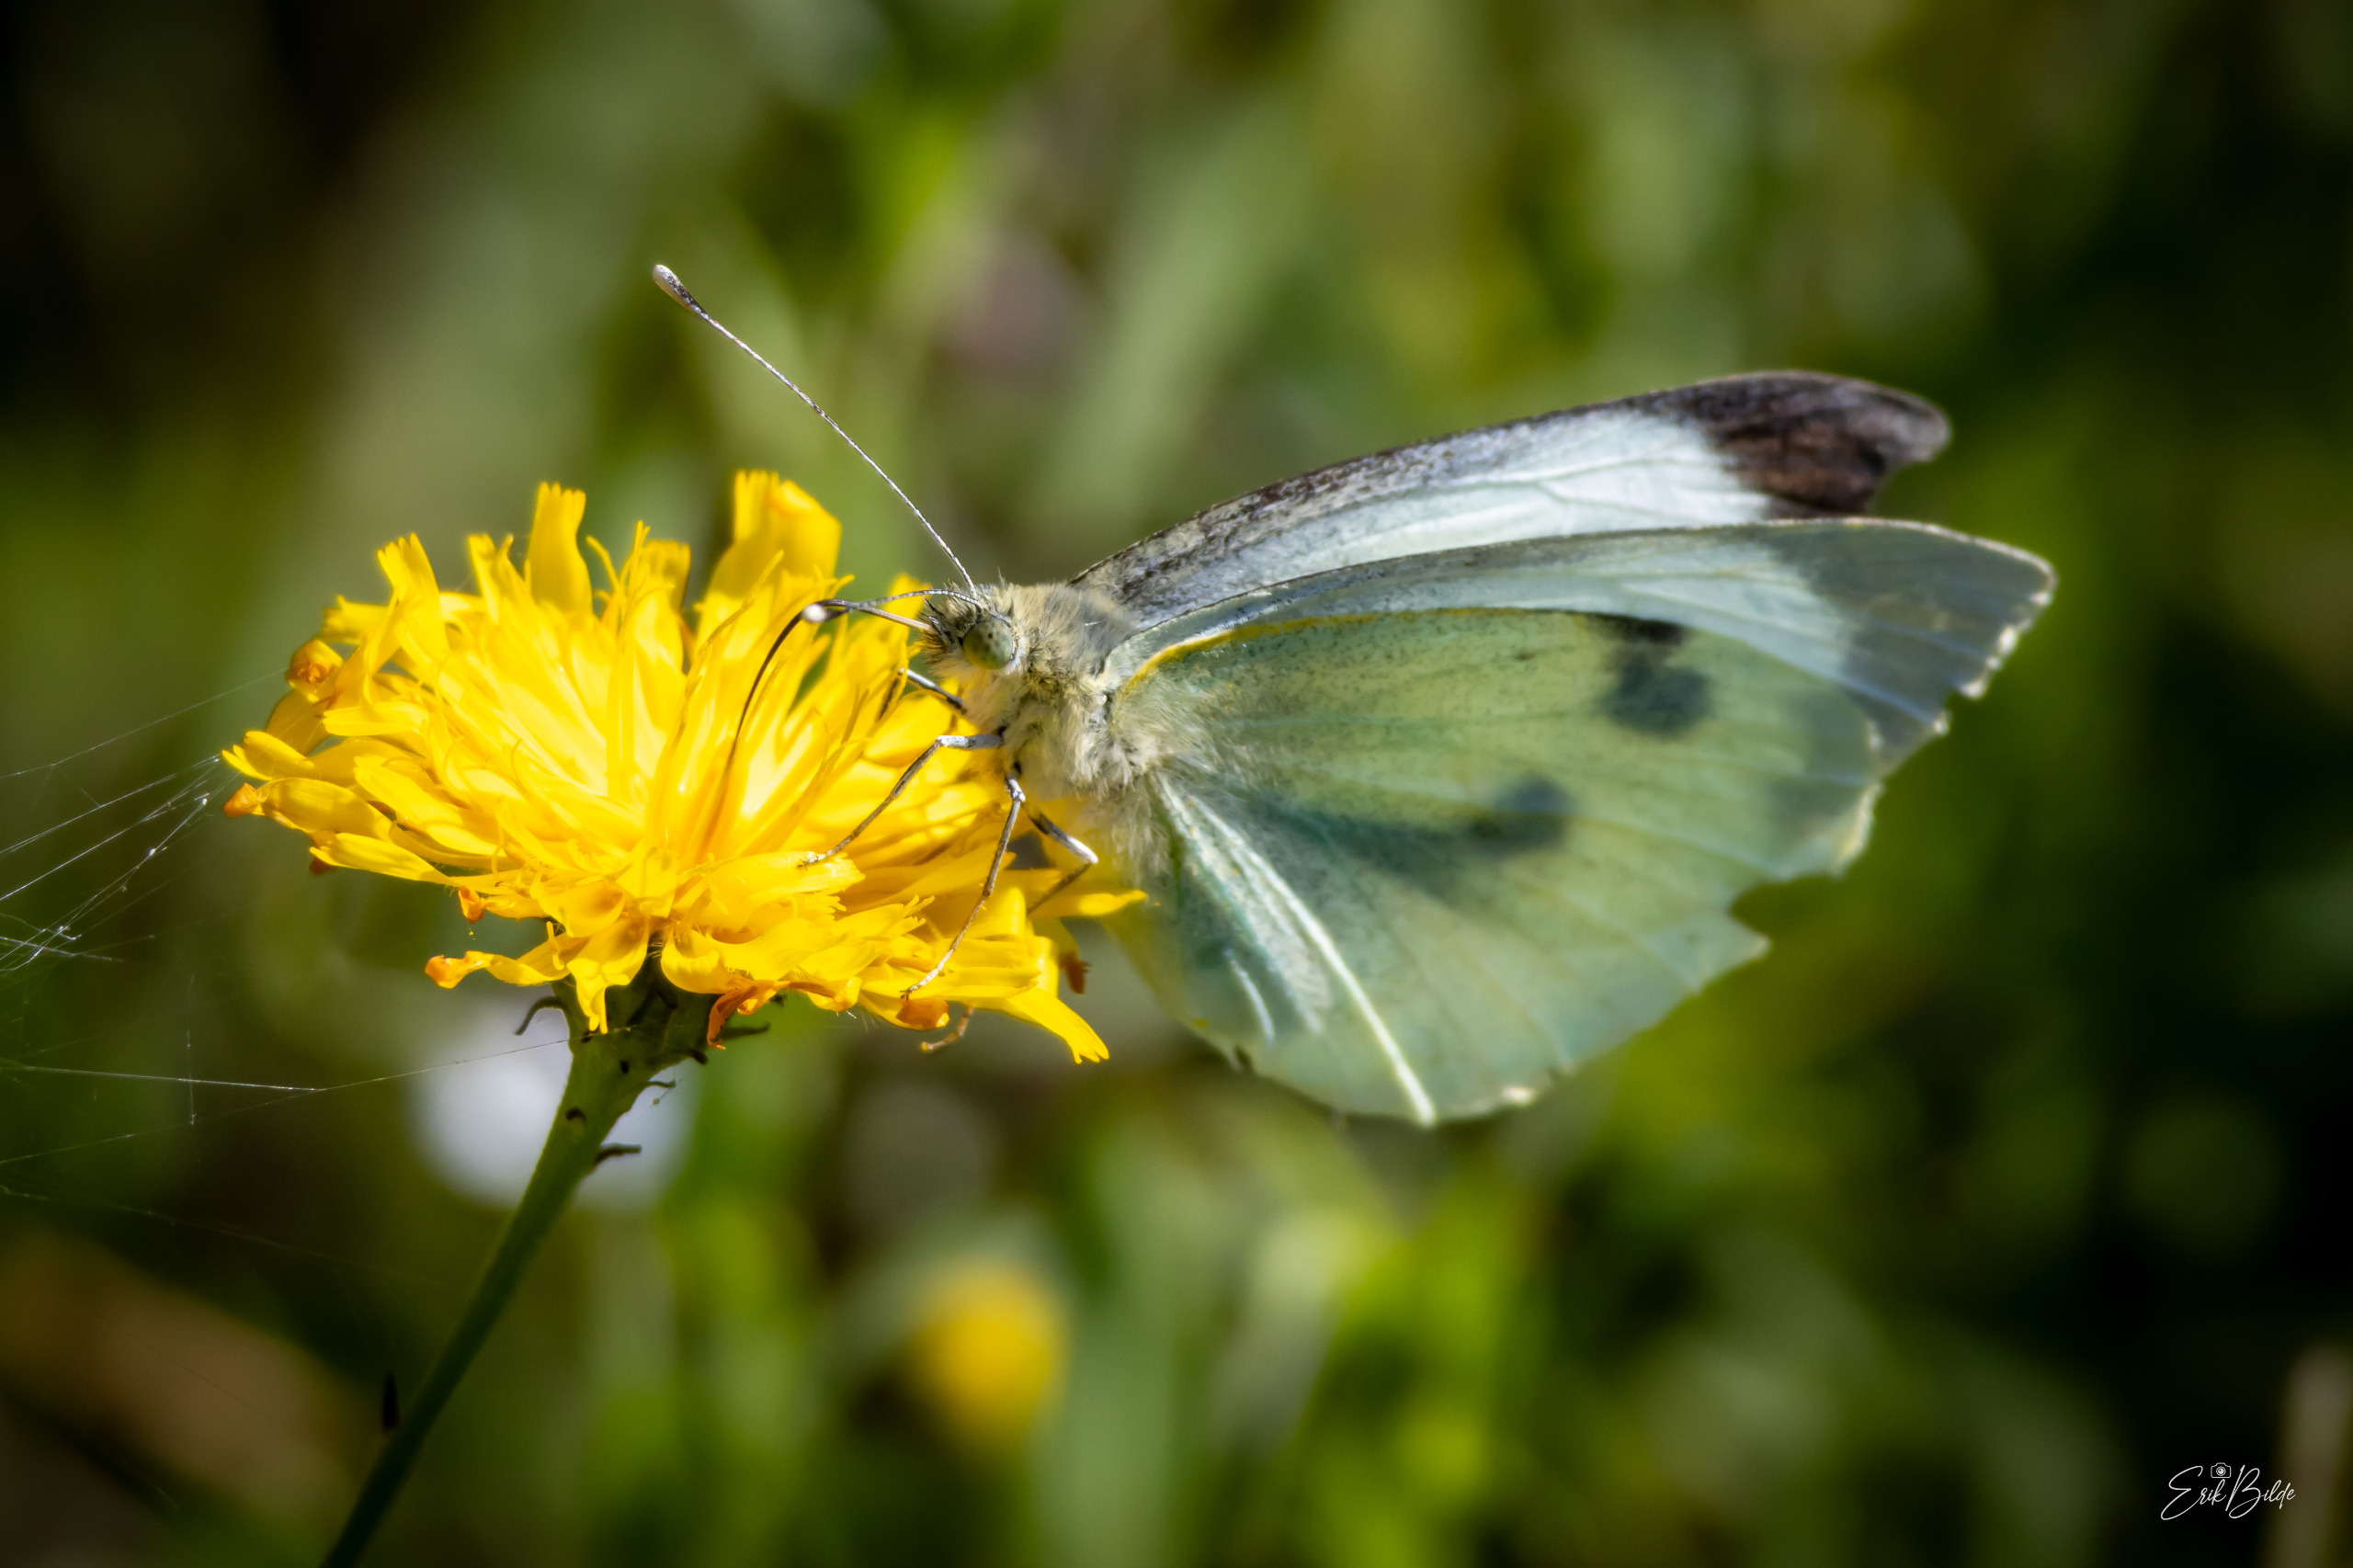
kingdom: Animalia
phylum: Arthropoda
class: Insecta
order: Lepidoptera
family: Pieridae
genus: Pieris
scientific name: Pieris brassicae
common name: Stor kålsommerfugl
